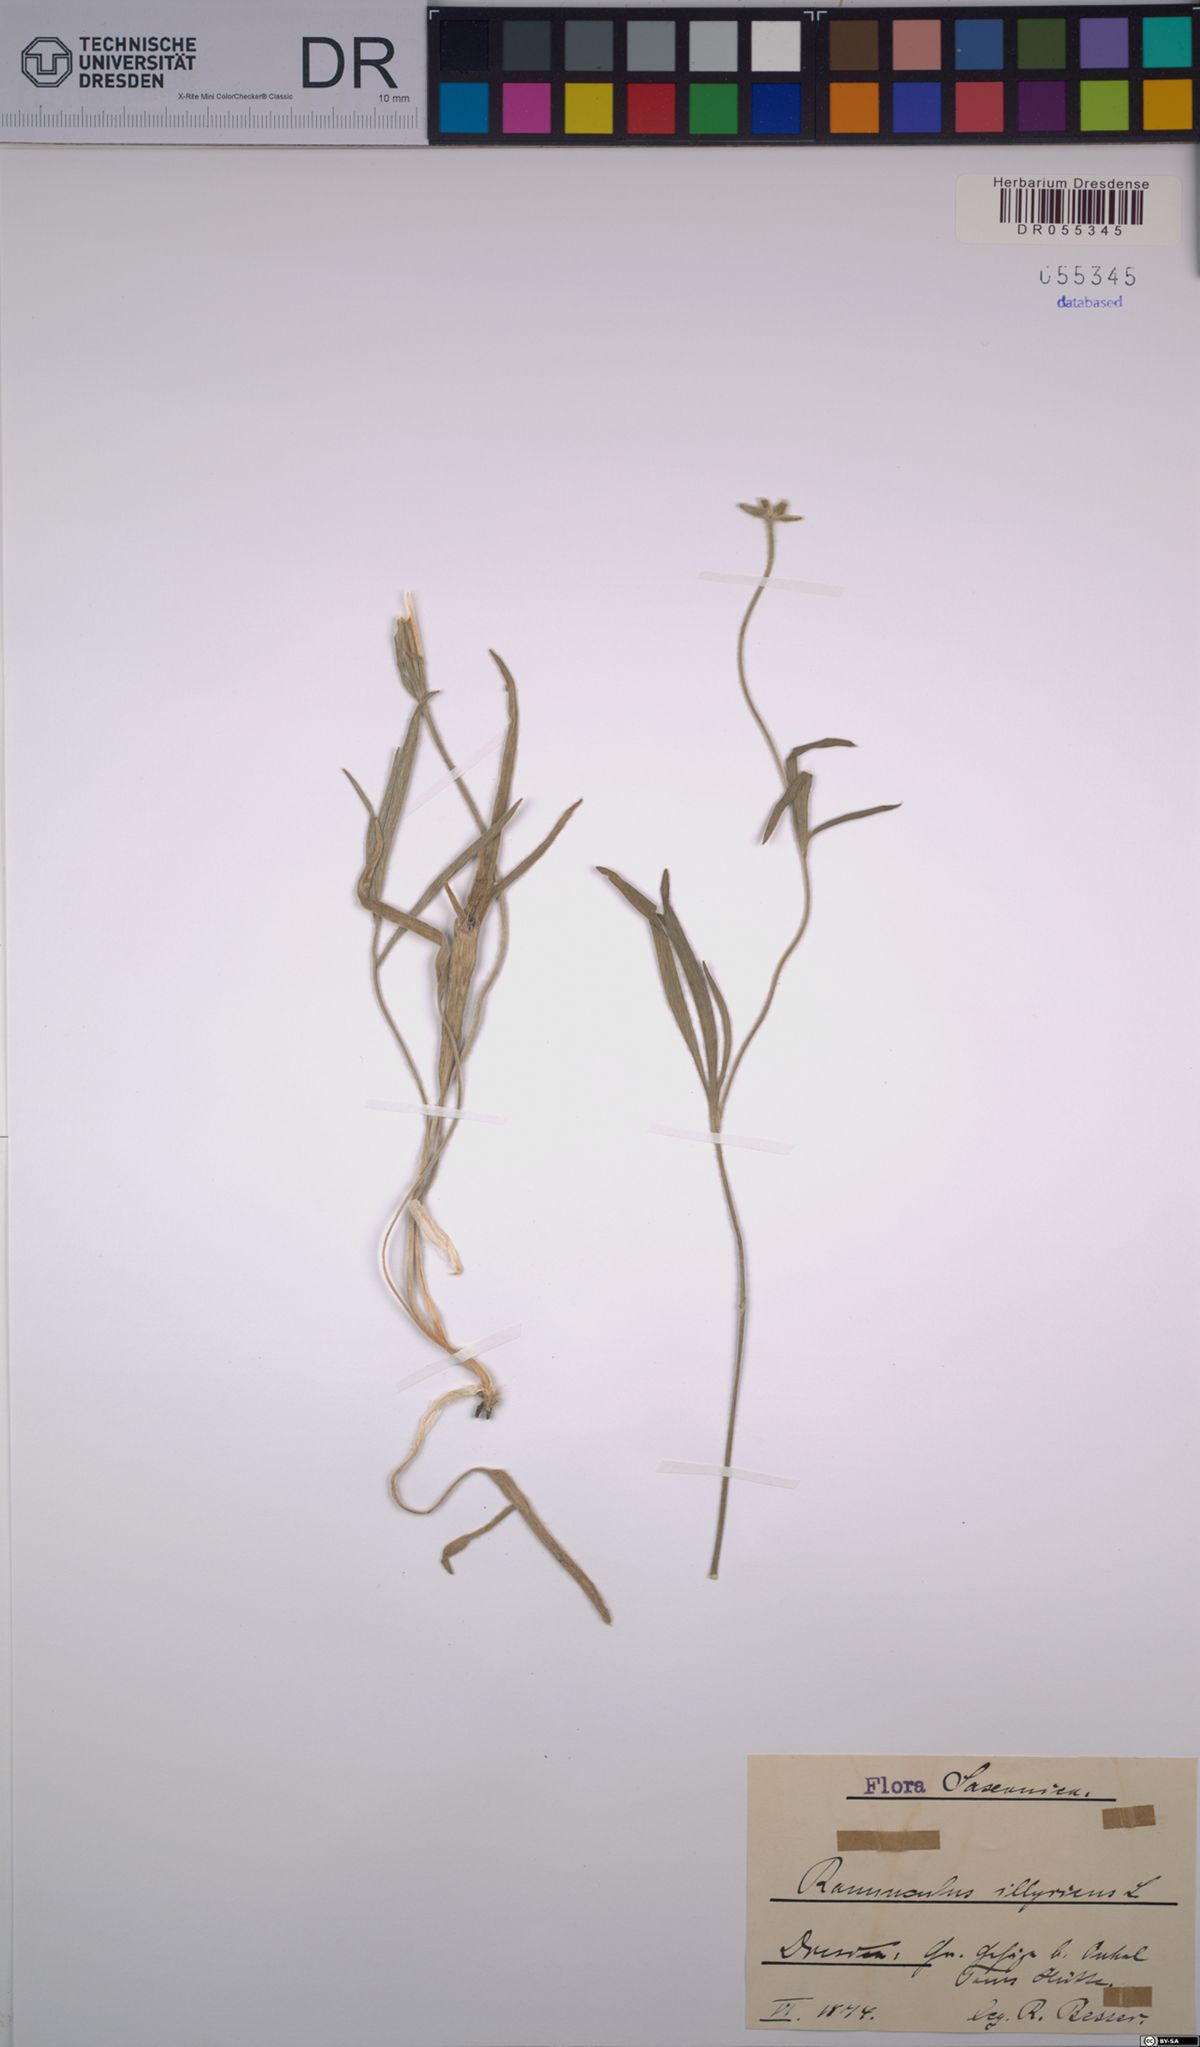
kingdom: Plantae
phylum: Tracheophyta
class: Magnoliopsida
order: Ranunculales
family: Ranunculaceae
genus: Ranunculus
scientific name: Ranunculus illyricus
